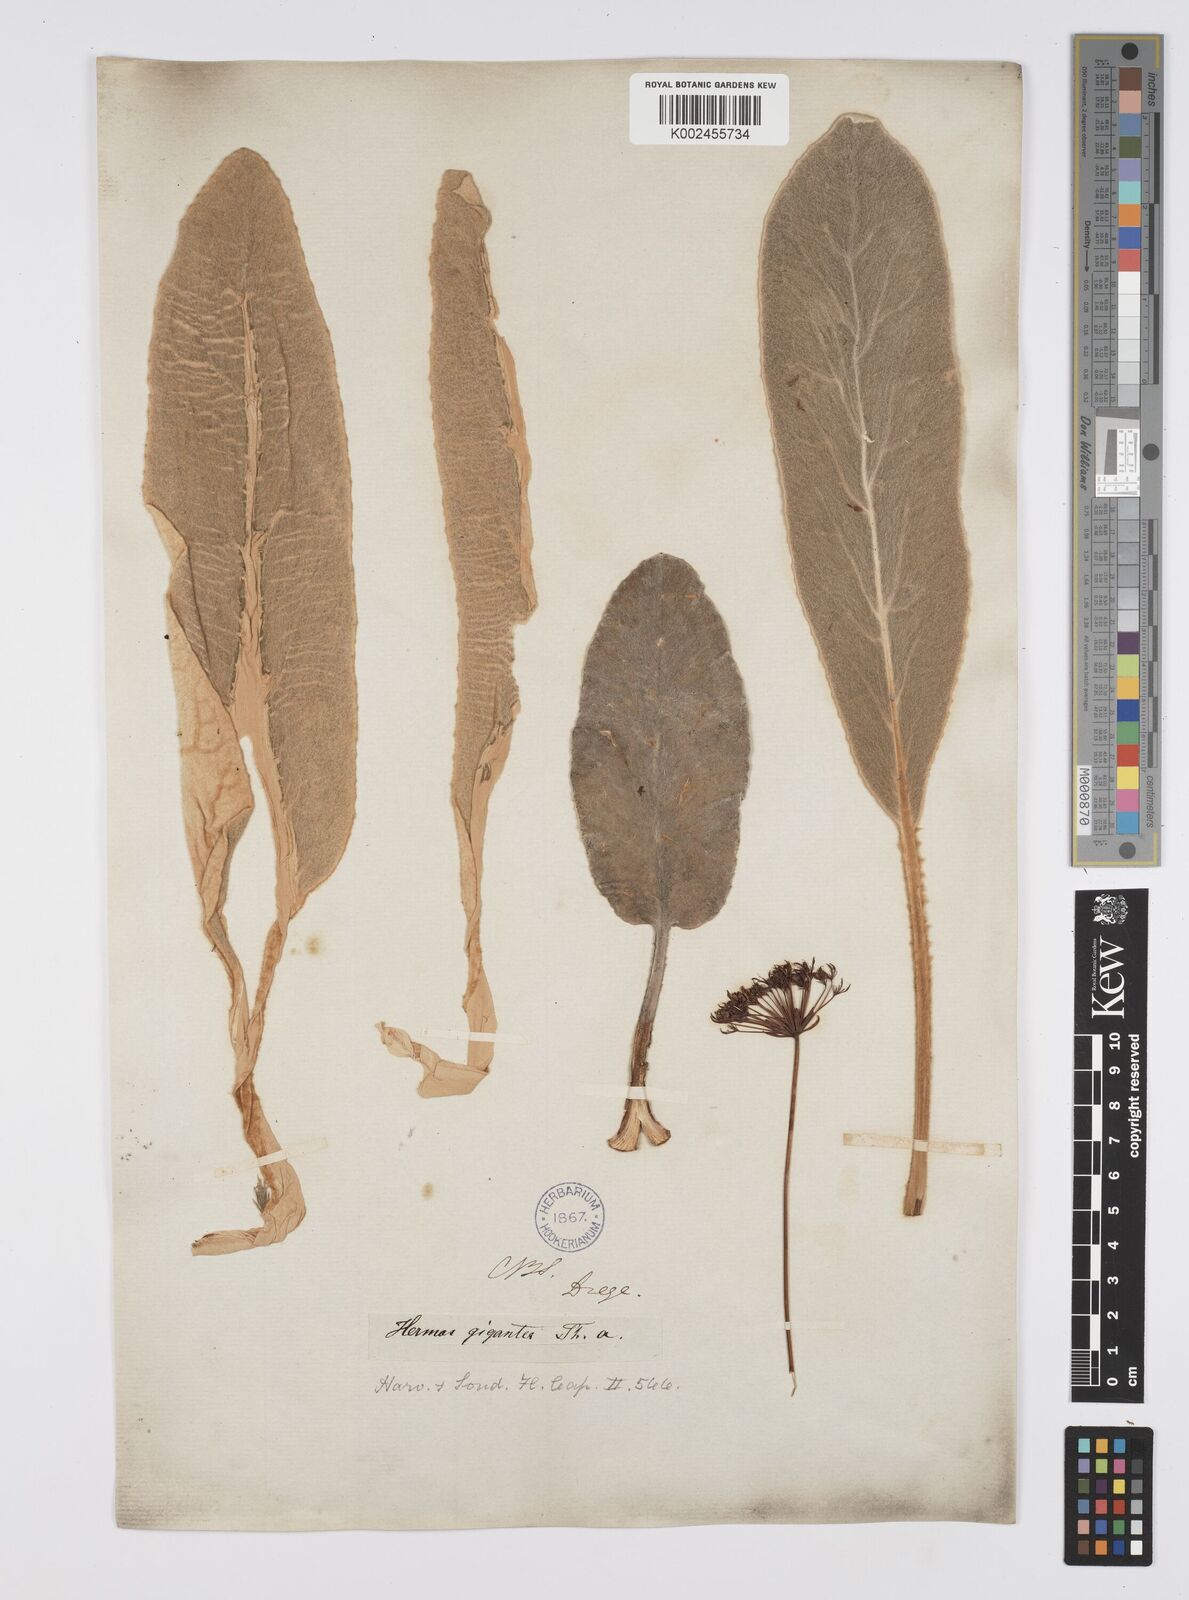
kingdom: Plantae
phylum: Tracheophyta
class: Magnoliopsida
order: Apiales
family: Apiaceae
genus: Hermas
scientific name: Hermas gigantea
